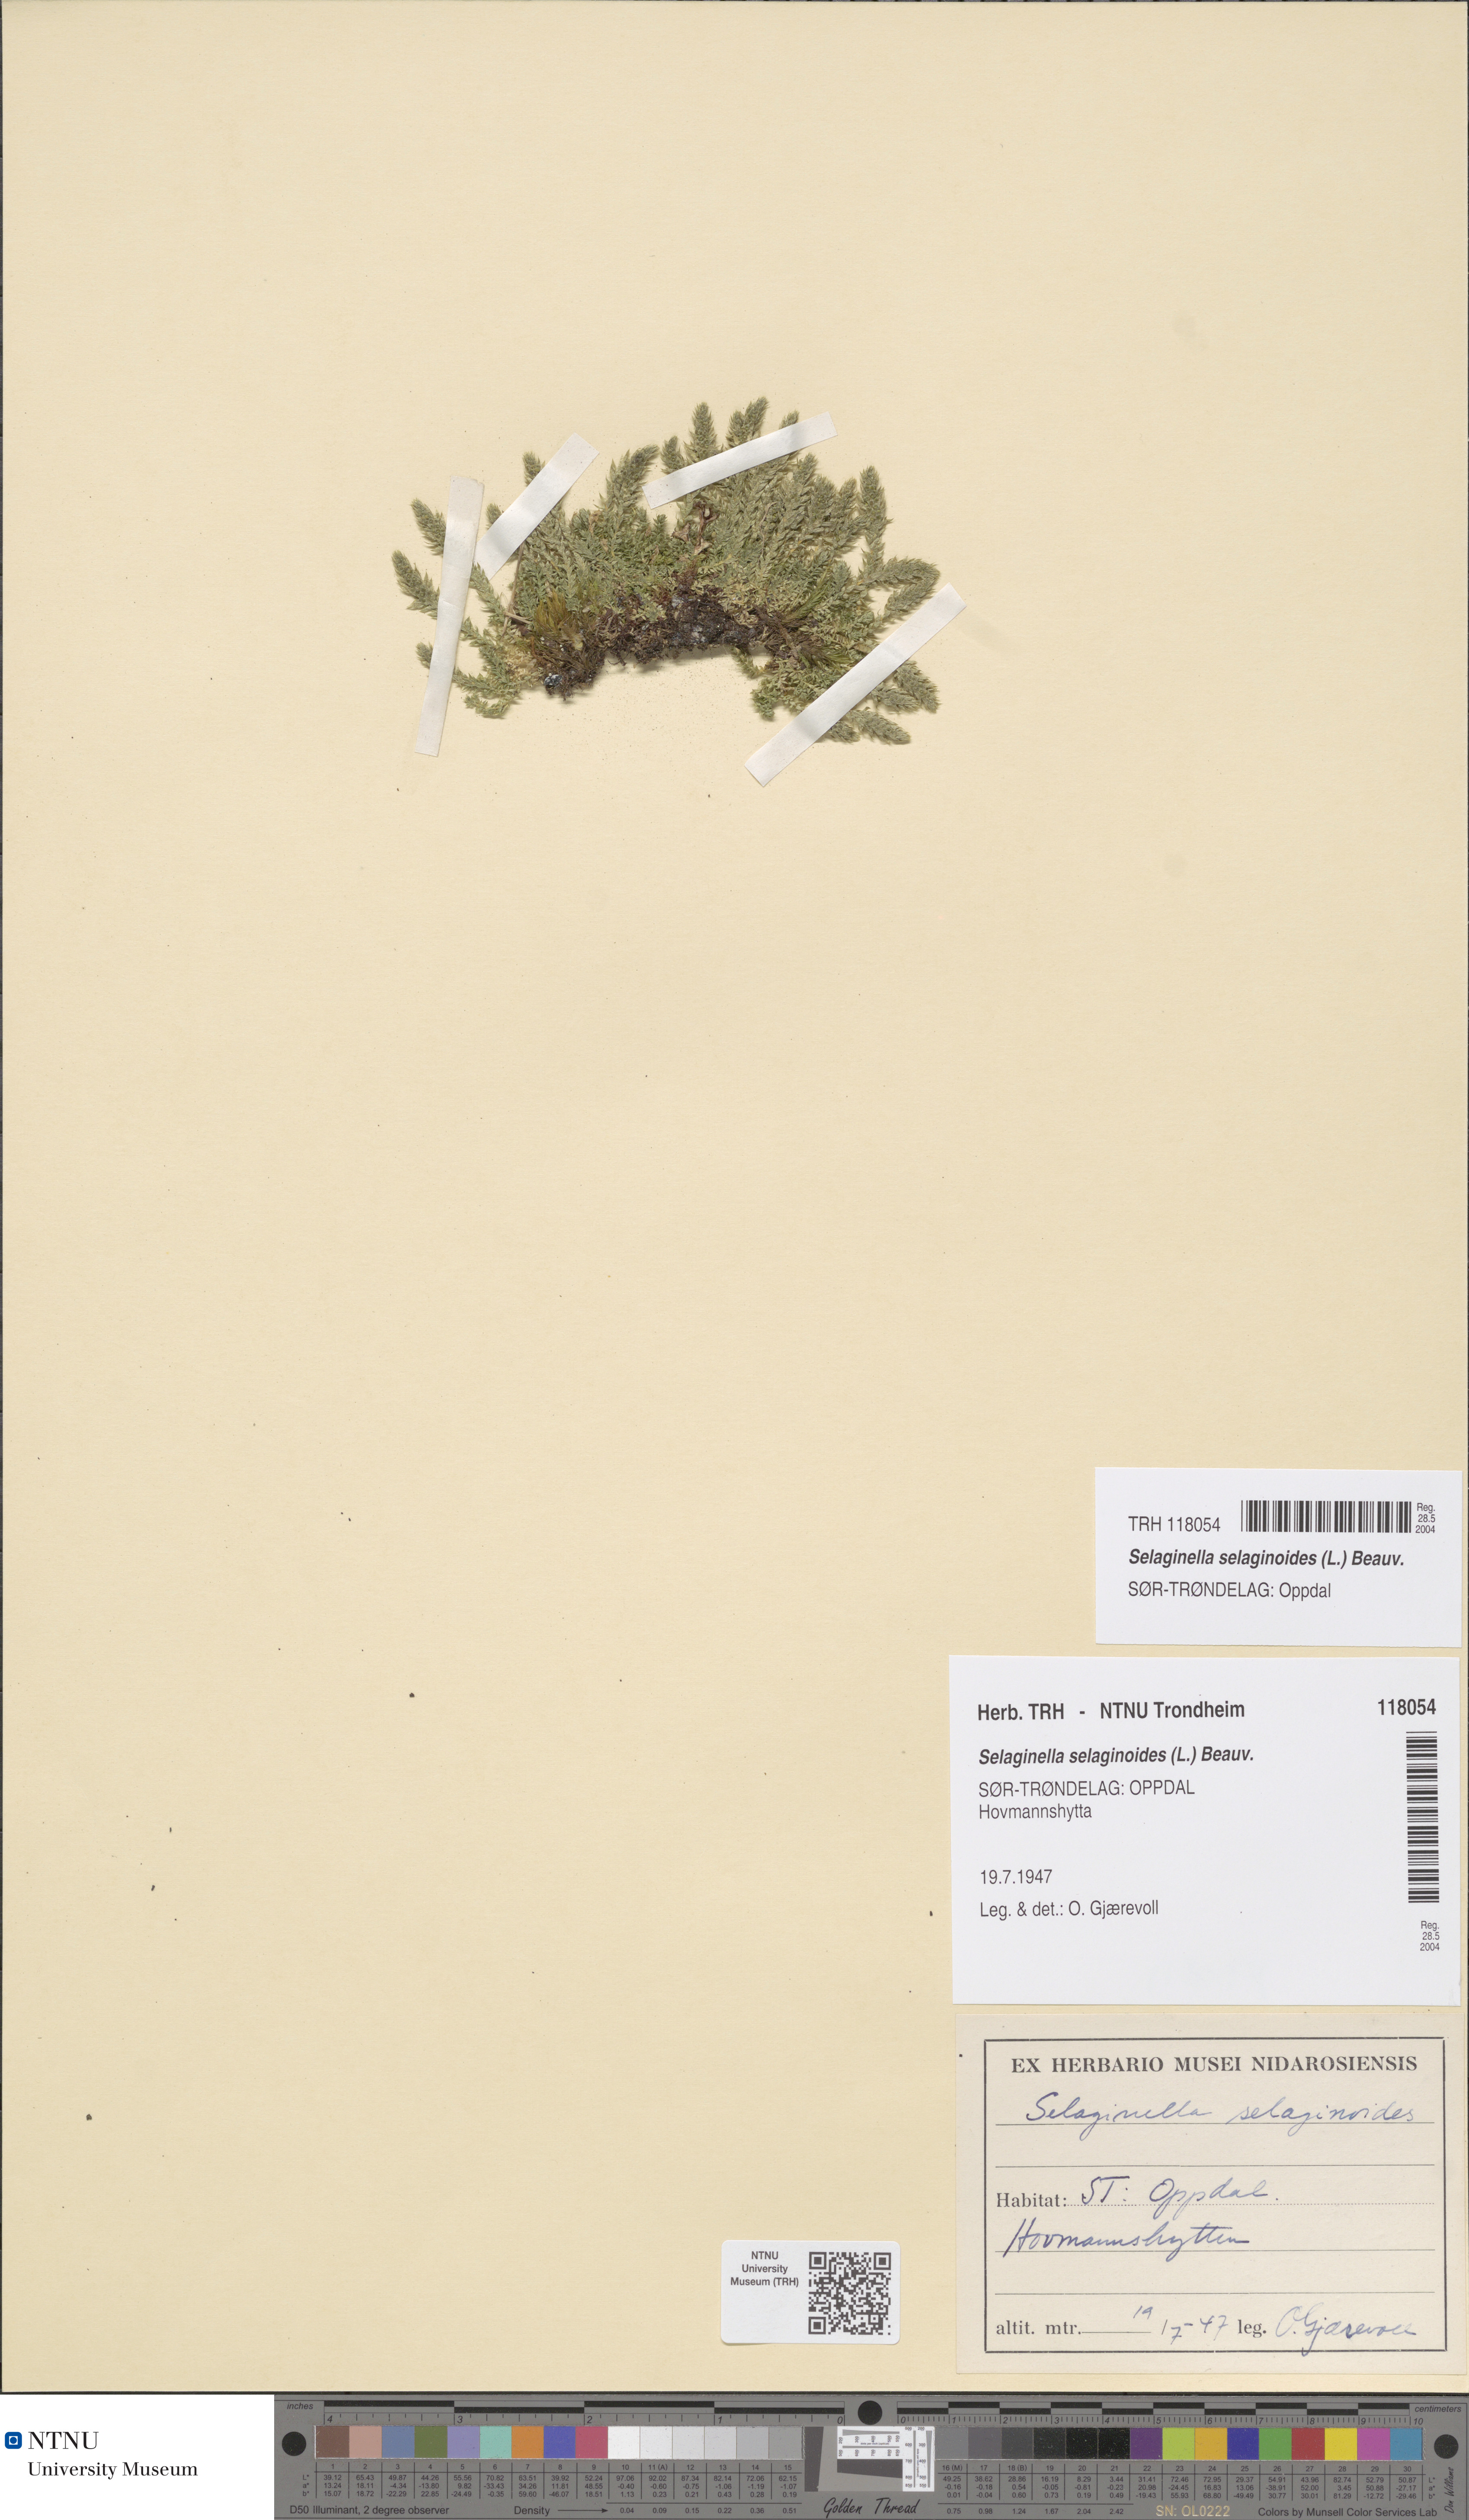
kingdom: Plantae
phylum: Tracheophyta
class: Lycopodiopsida
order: Selaginellales
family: Selaginellaceae
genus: Selaginella
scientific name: Selaginella selaginoides
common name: Prickly mountain-moss
